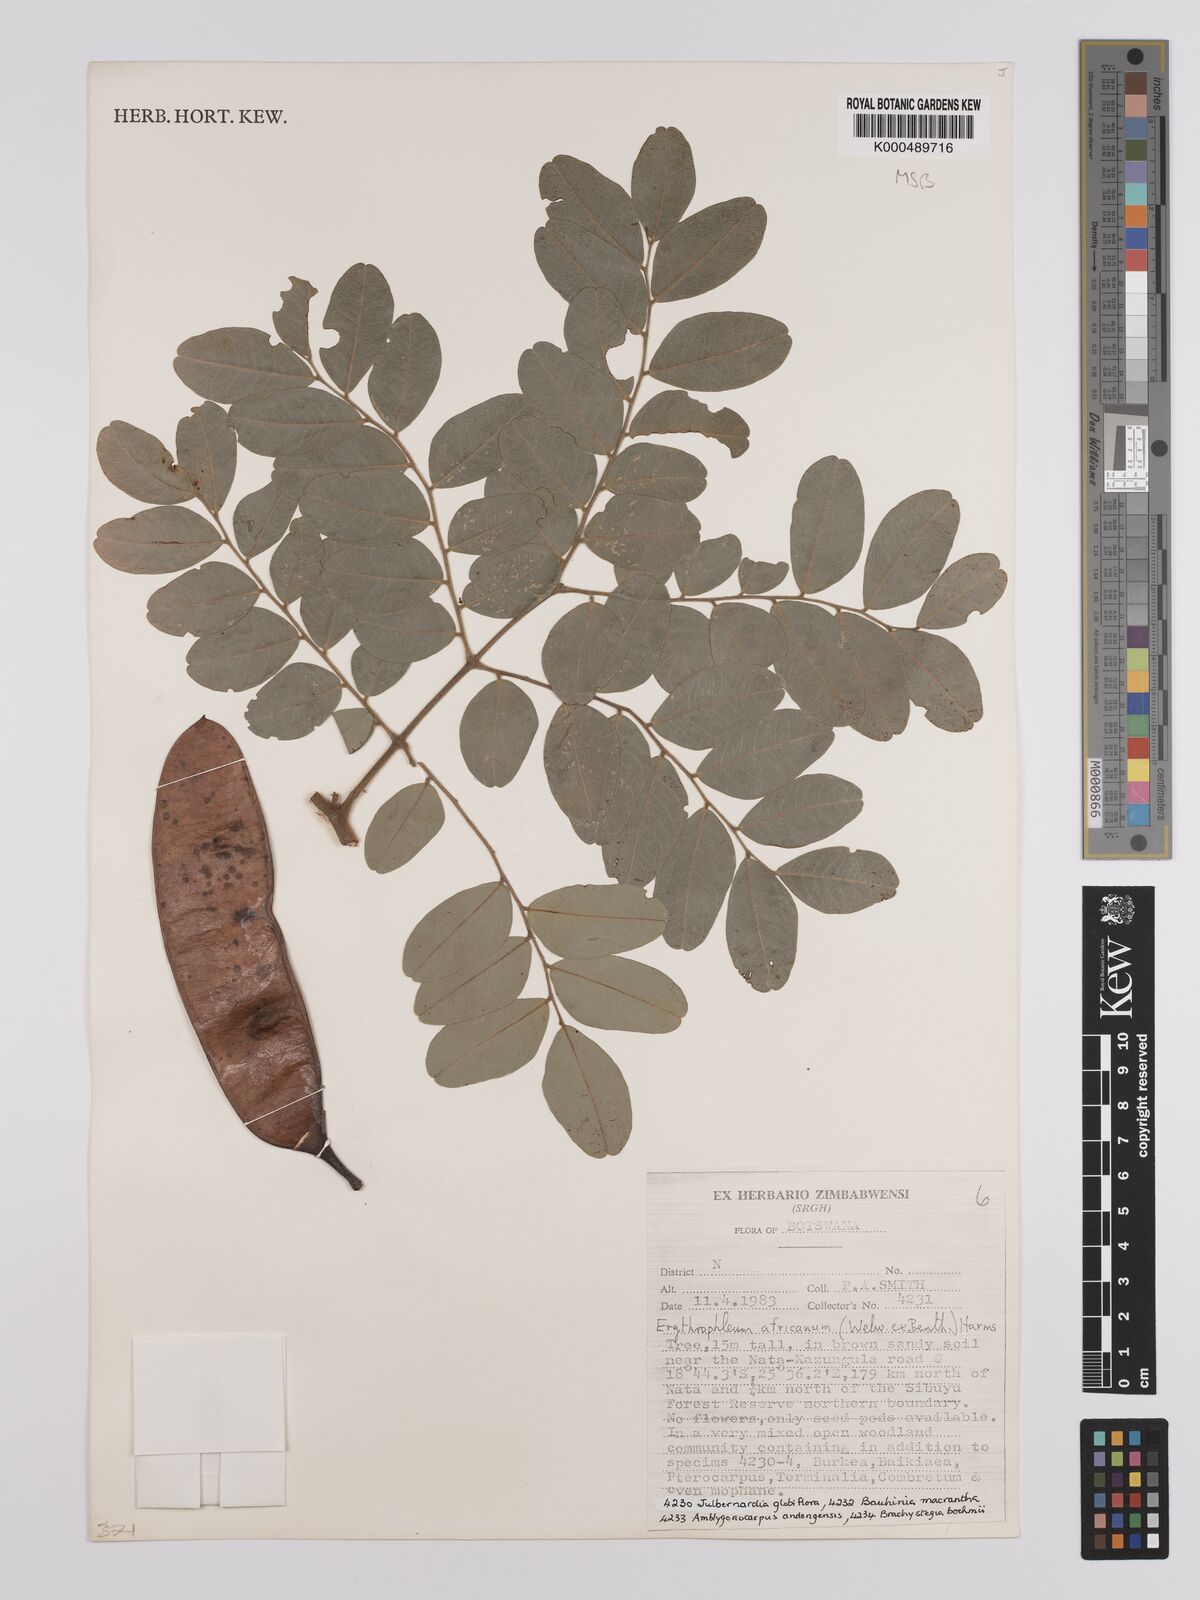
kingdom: Plantae
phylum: Tracheophyta
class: Magnoliopsida
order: Fabales
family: Fabaceae
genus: Erythrophleum
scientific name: Erythrophleum africanum
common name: African blackwood
